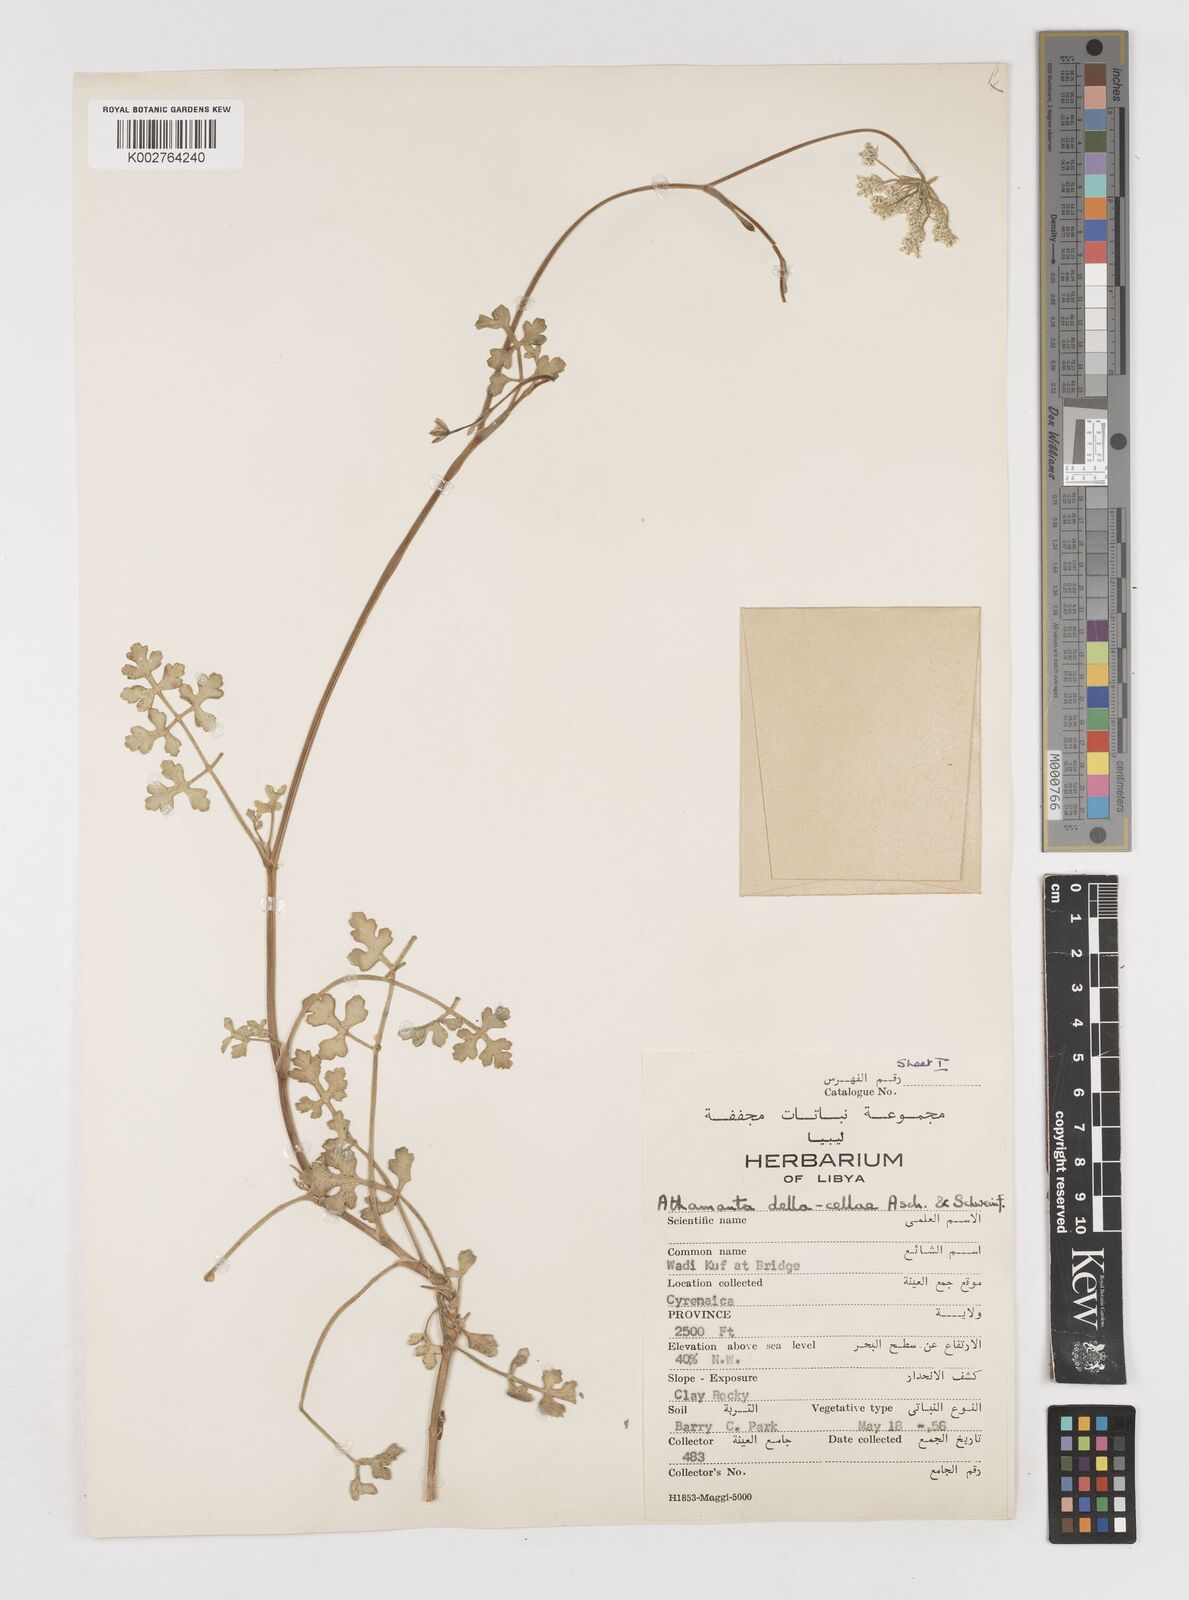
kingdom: Plantae
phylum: Tracheophyta
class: Magnoliopsida
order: Apiales
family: Apiaceae
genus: Daucus
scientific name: Daucus della-cellae
